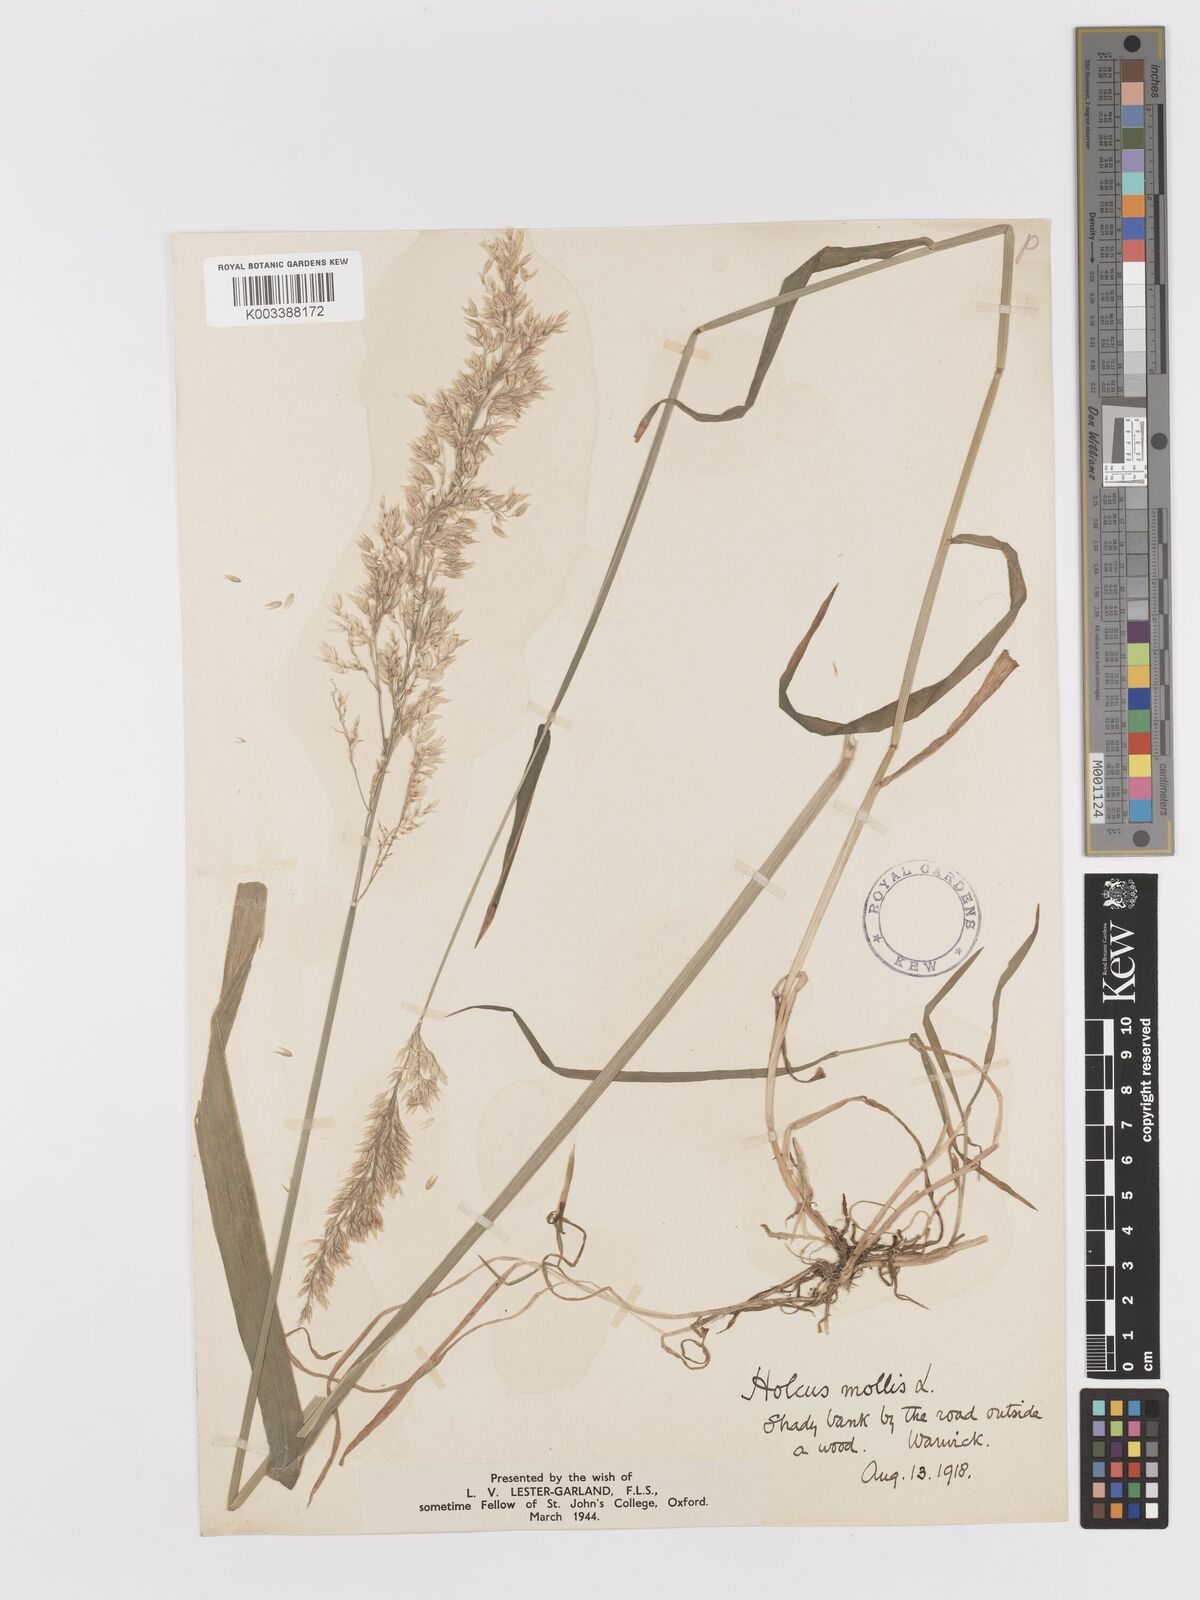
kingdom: Plantae
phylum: Tracheophyta
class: Liliopsida
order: Poales
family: Poaceae
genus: Holcus
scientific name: Holcus mollis
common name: Creeping velvetgrass
